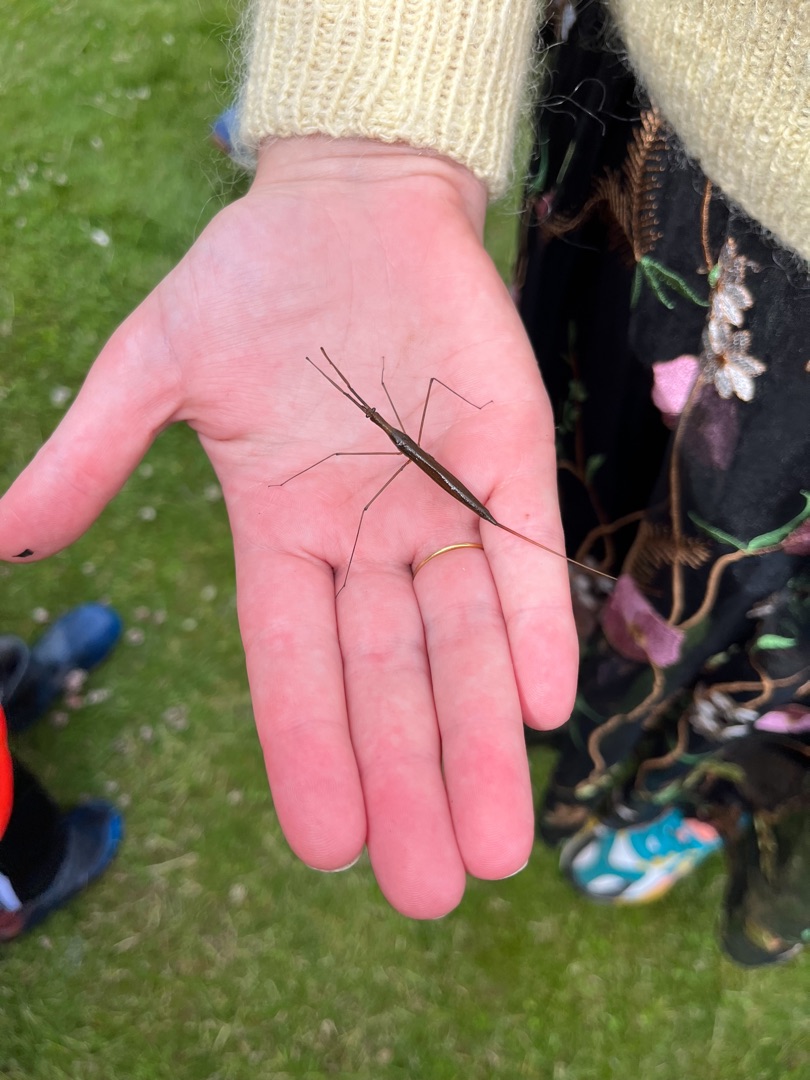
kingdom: Animalia
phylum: Arthropoda
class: Insecta
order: Hemiptera
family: Nepidae
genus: Ranatra
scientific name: Ranatra linearis
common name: Stavtæge
